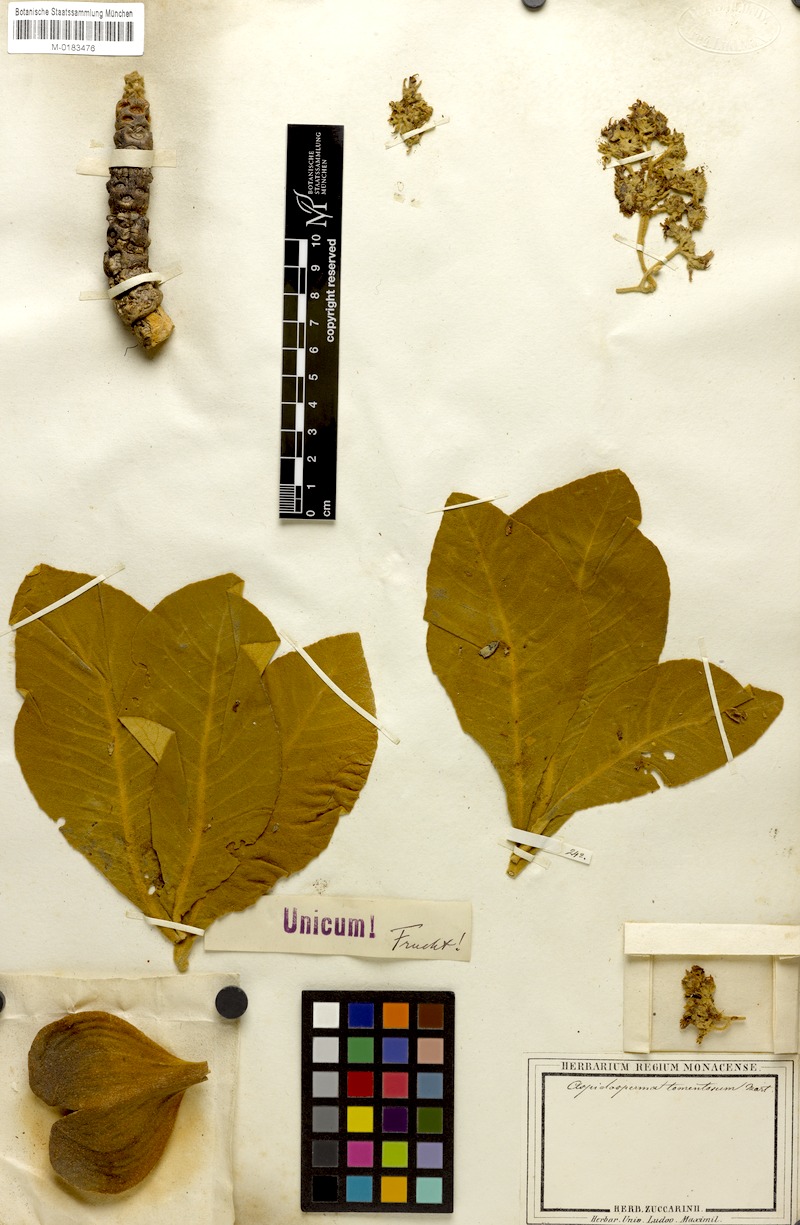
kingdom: Plantae
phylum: Tracheophyta
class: Magnoliopsida
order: Gentianales
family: Apocynaceae
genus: Aspidosperma
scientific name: Aspidosperma tomentosum
